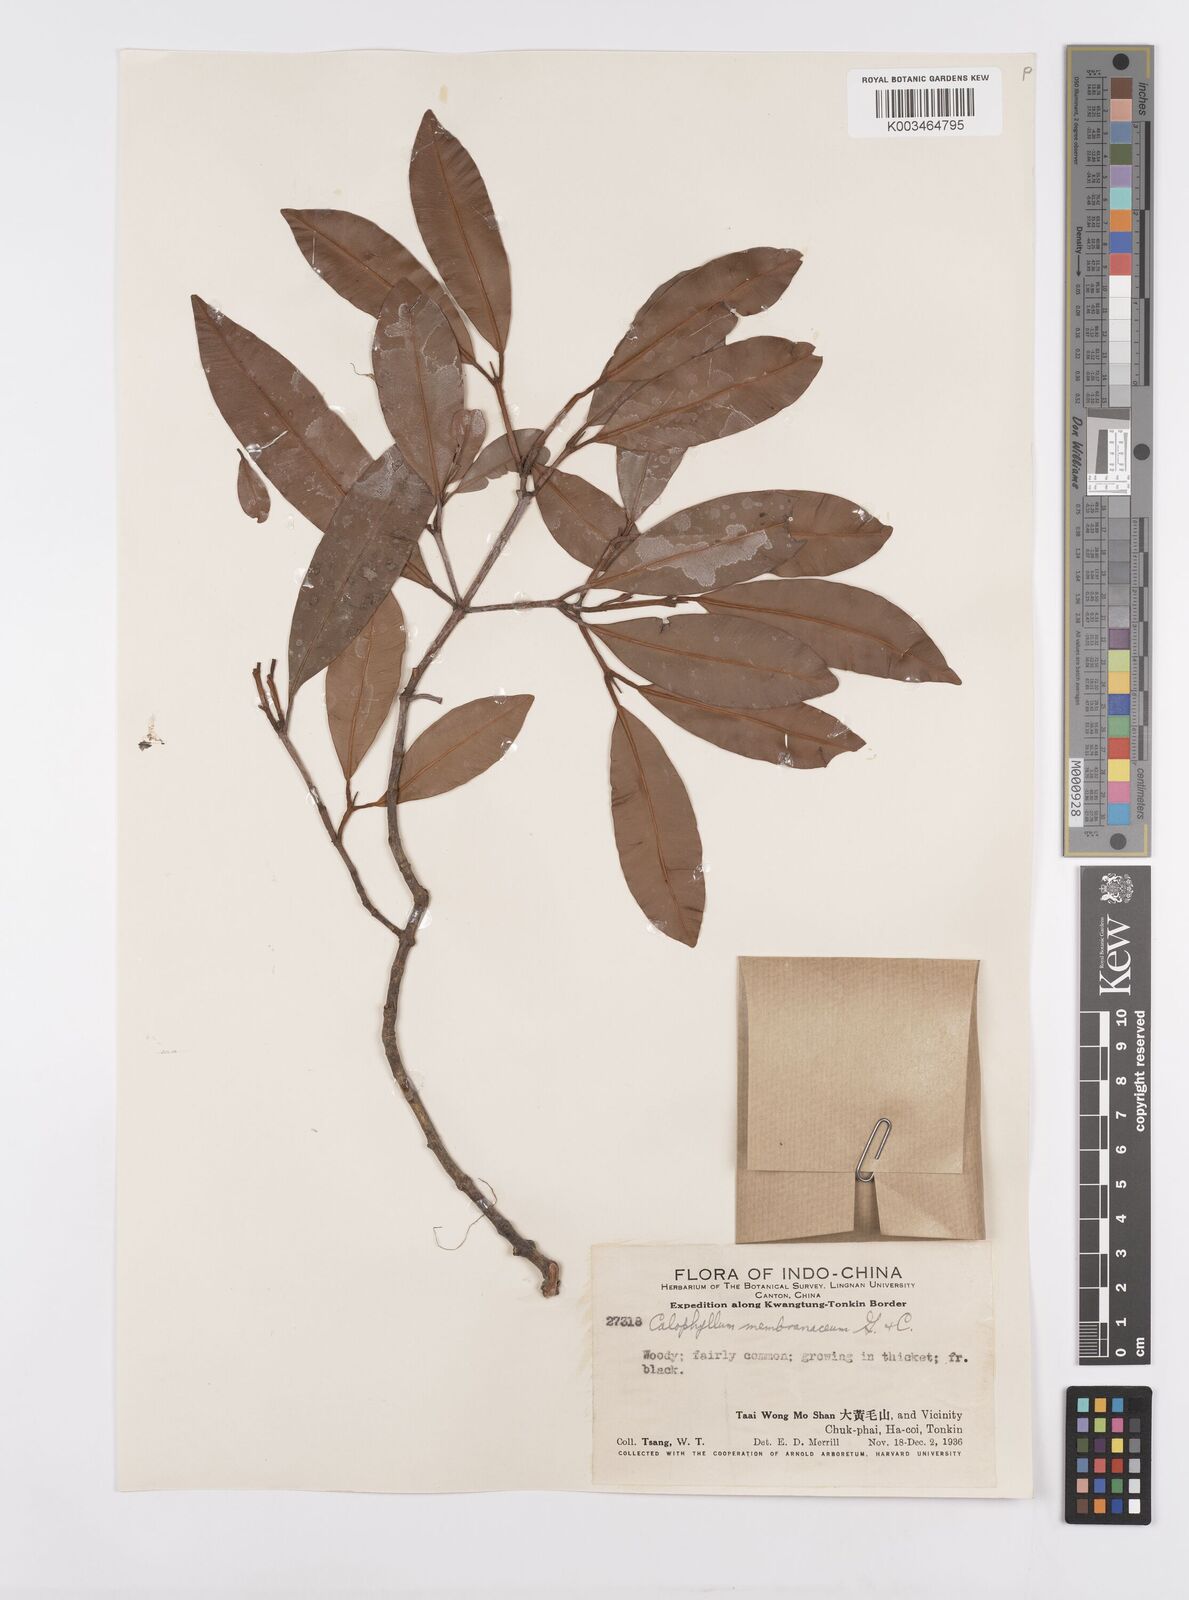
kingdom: Plantae
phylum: Tracheophyta
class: Magnoliopsida
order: Malpighiales
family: Calophyllaceae
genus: Calophyllum
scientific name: Calophyllum membranaceum
